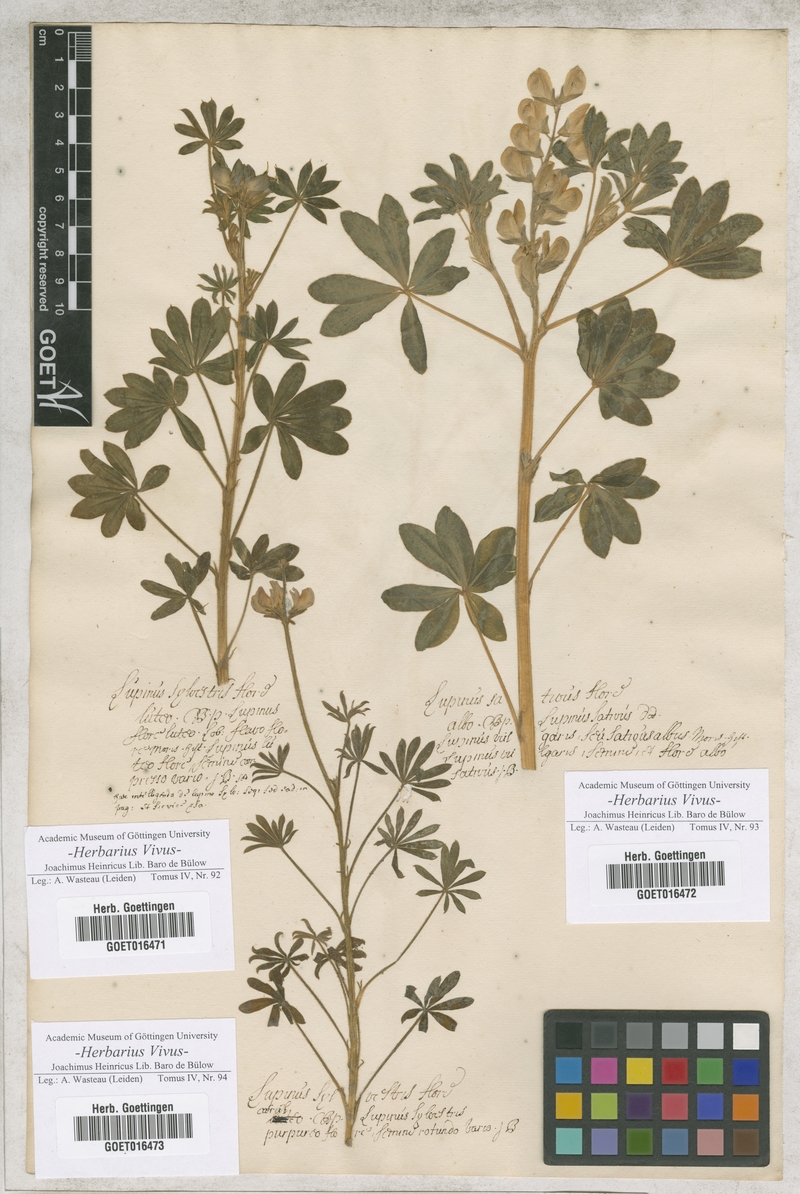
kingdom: Plantae
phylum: Tracheophyta
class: Magnoliopsida
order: Fabales
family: Fabaceae
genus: Lupinus
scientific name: Lupinus luteus
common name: European yellow lupine
